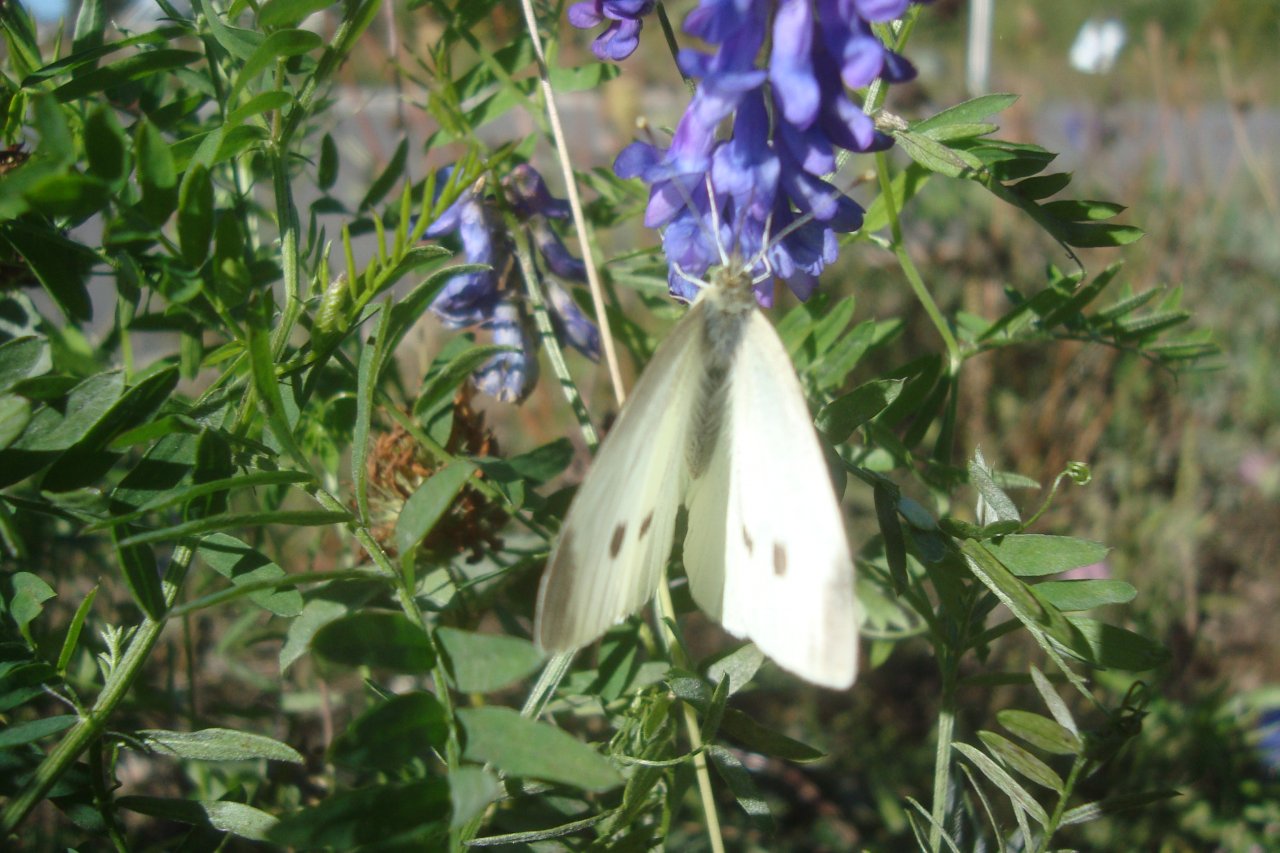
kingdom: Animalia
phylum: Arthropoda
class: Insecta
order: Lepidoptera
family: Pieridae
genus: Pieris
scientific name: Pieris rapae
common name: Cabbage White
